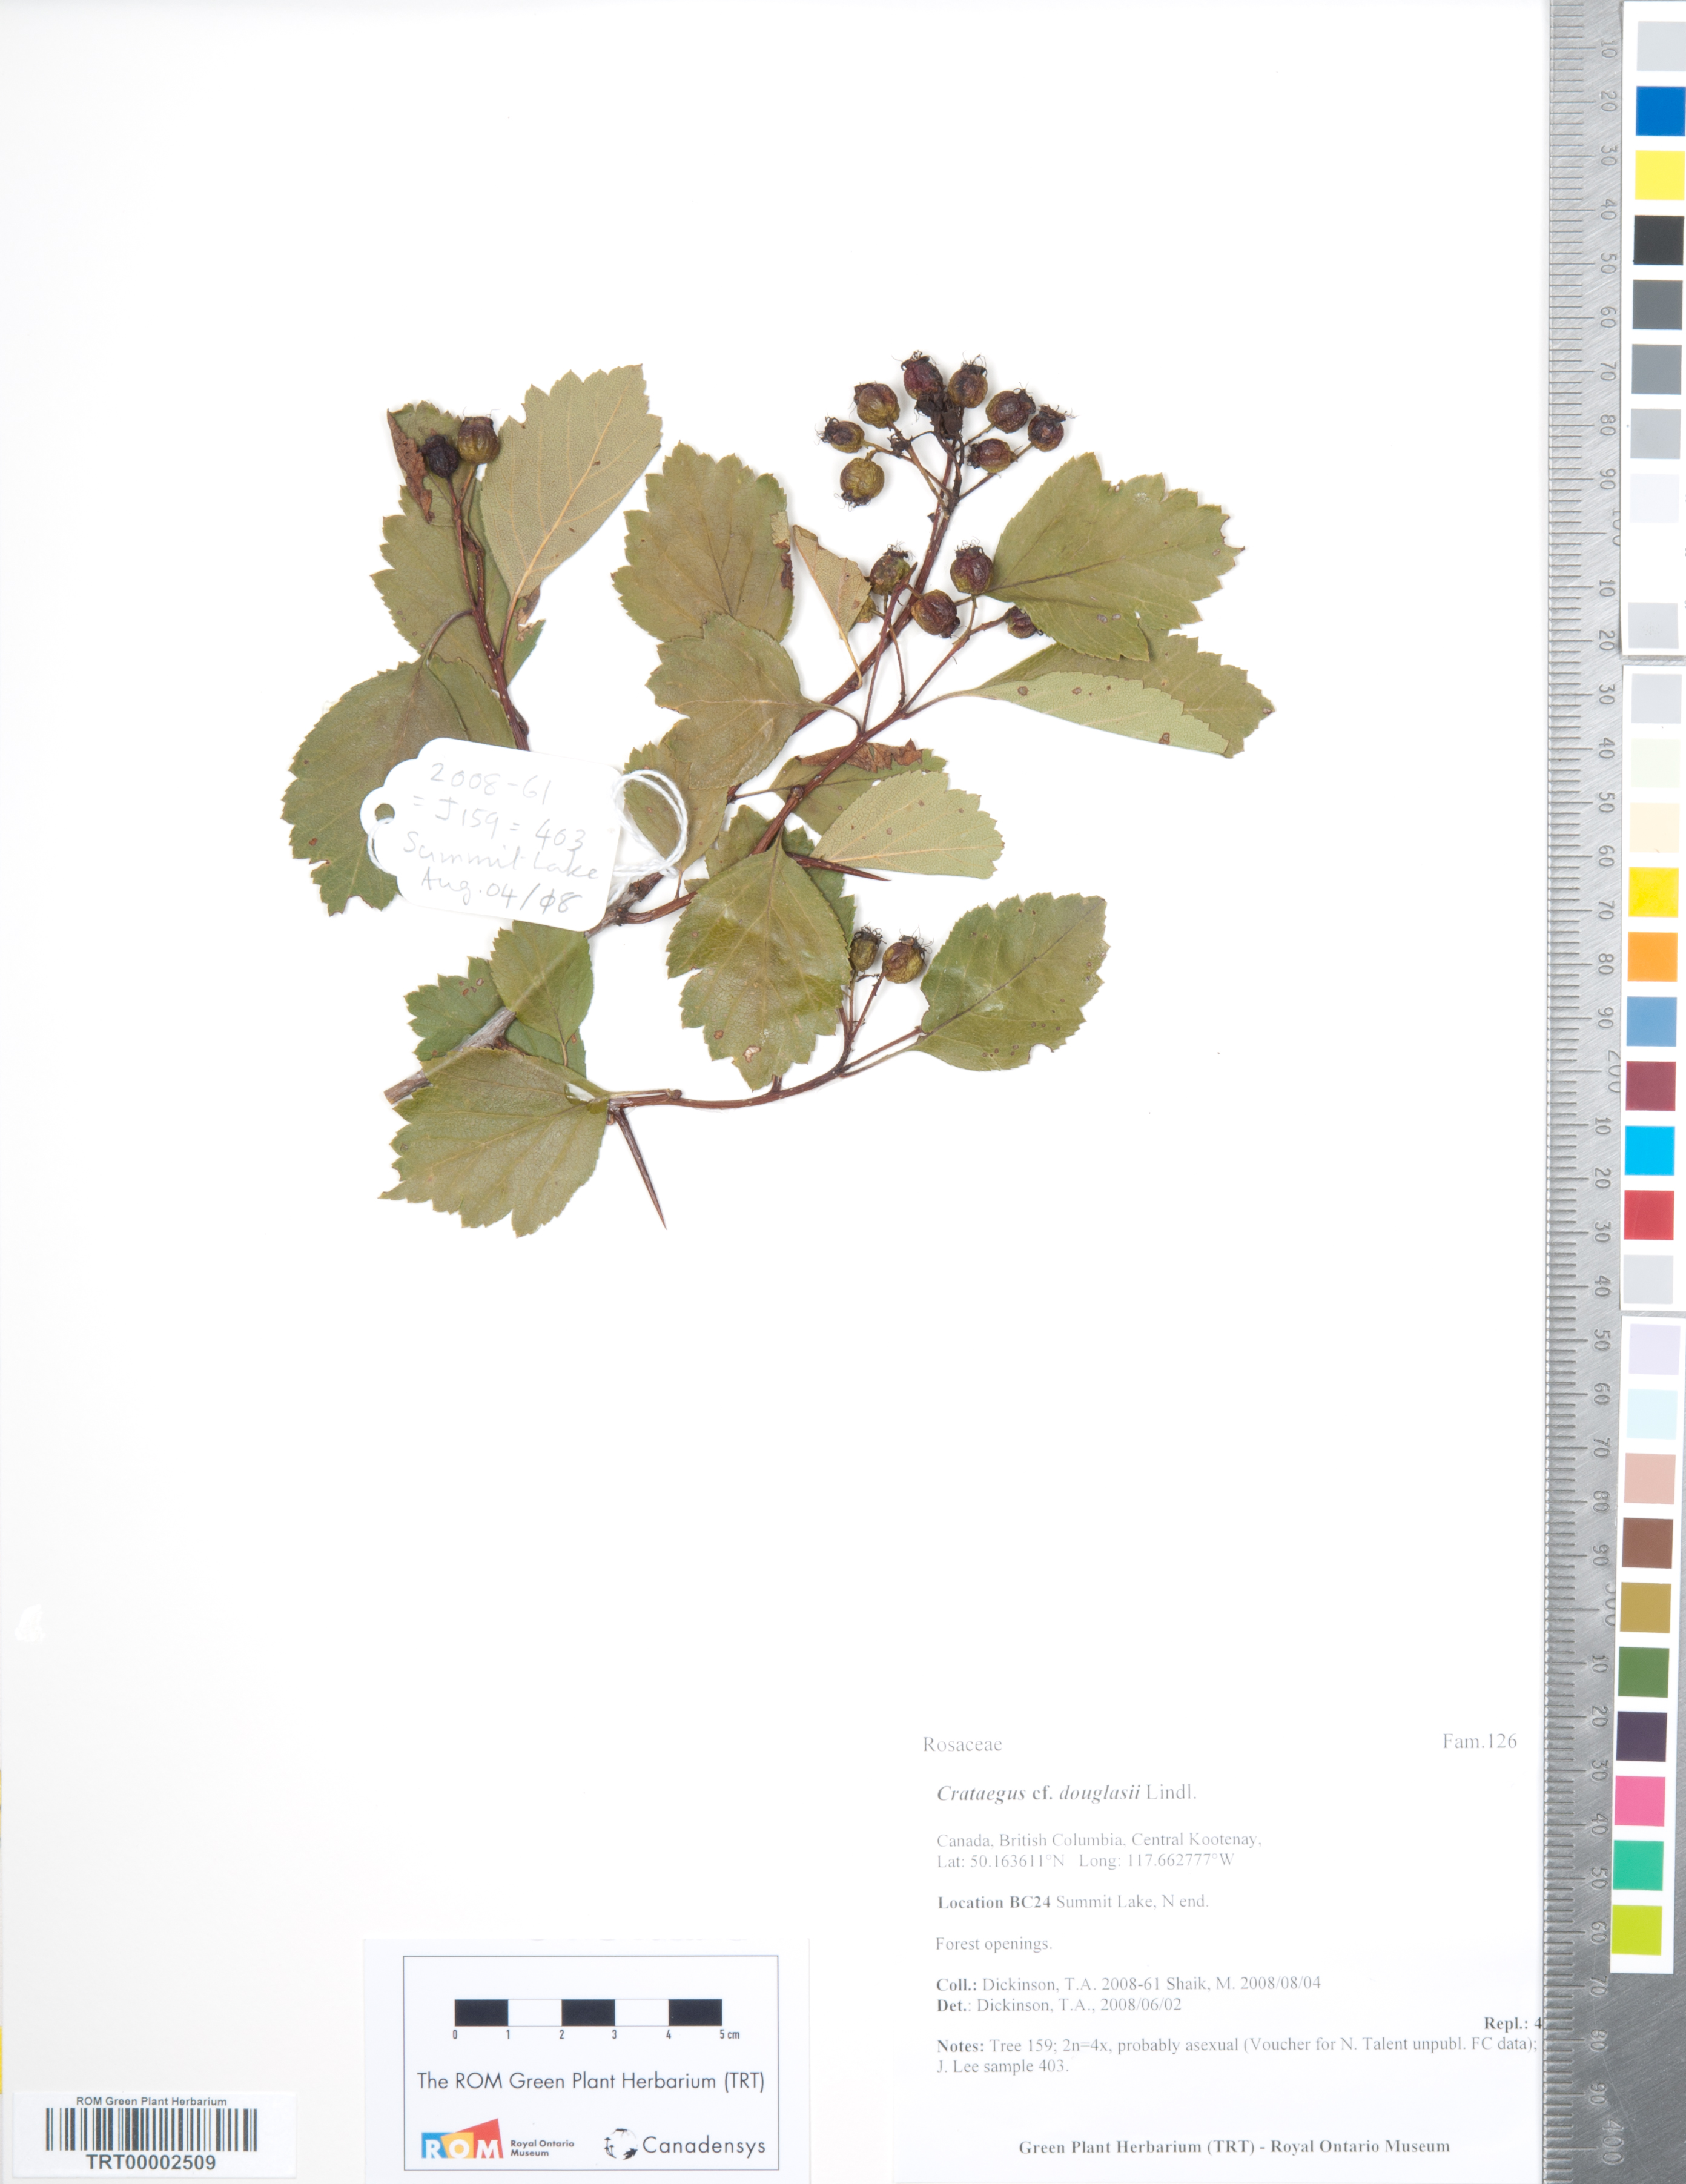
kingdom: Plantae
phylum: Tracheophyta
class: Magnoliopsida
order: Rosales
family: Rosaceae
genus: Crataegus
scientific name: Crataegus douglasii
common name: Black hawthorn
